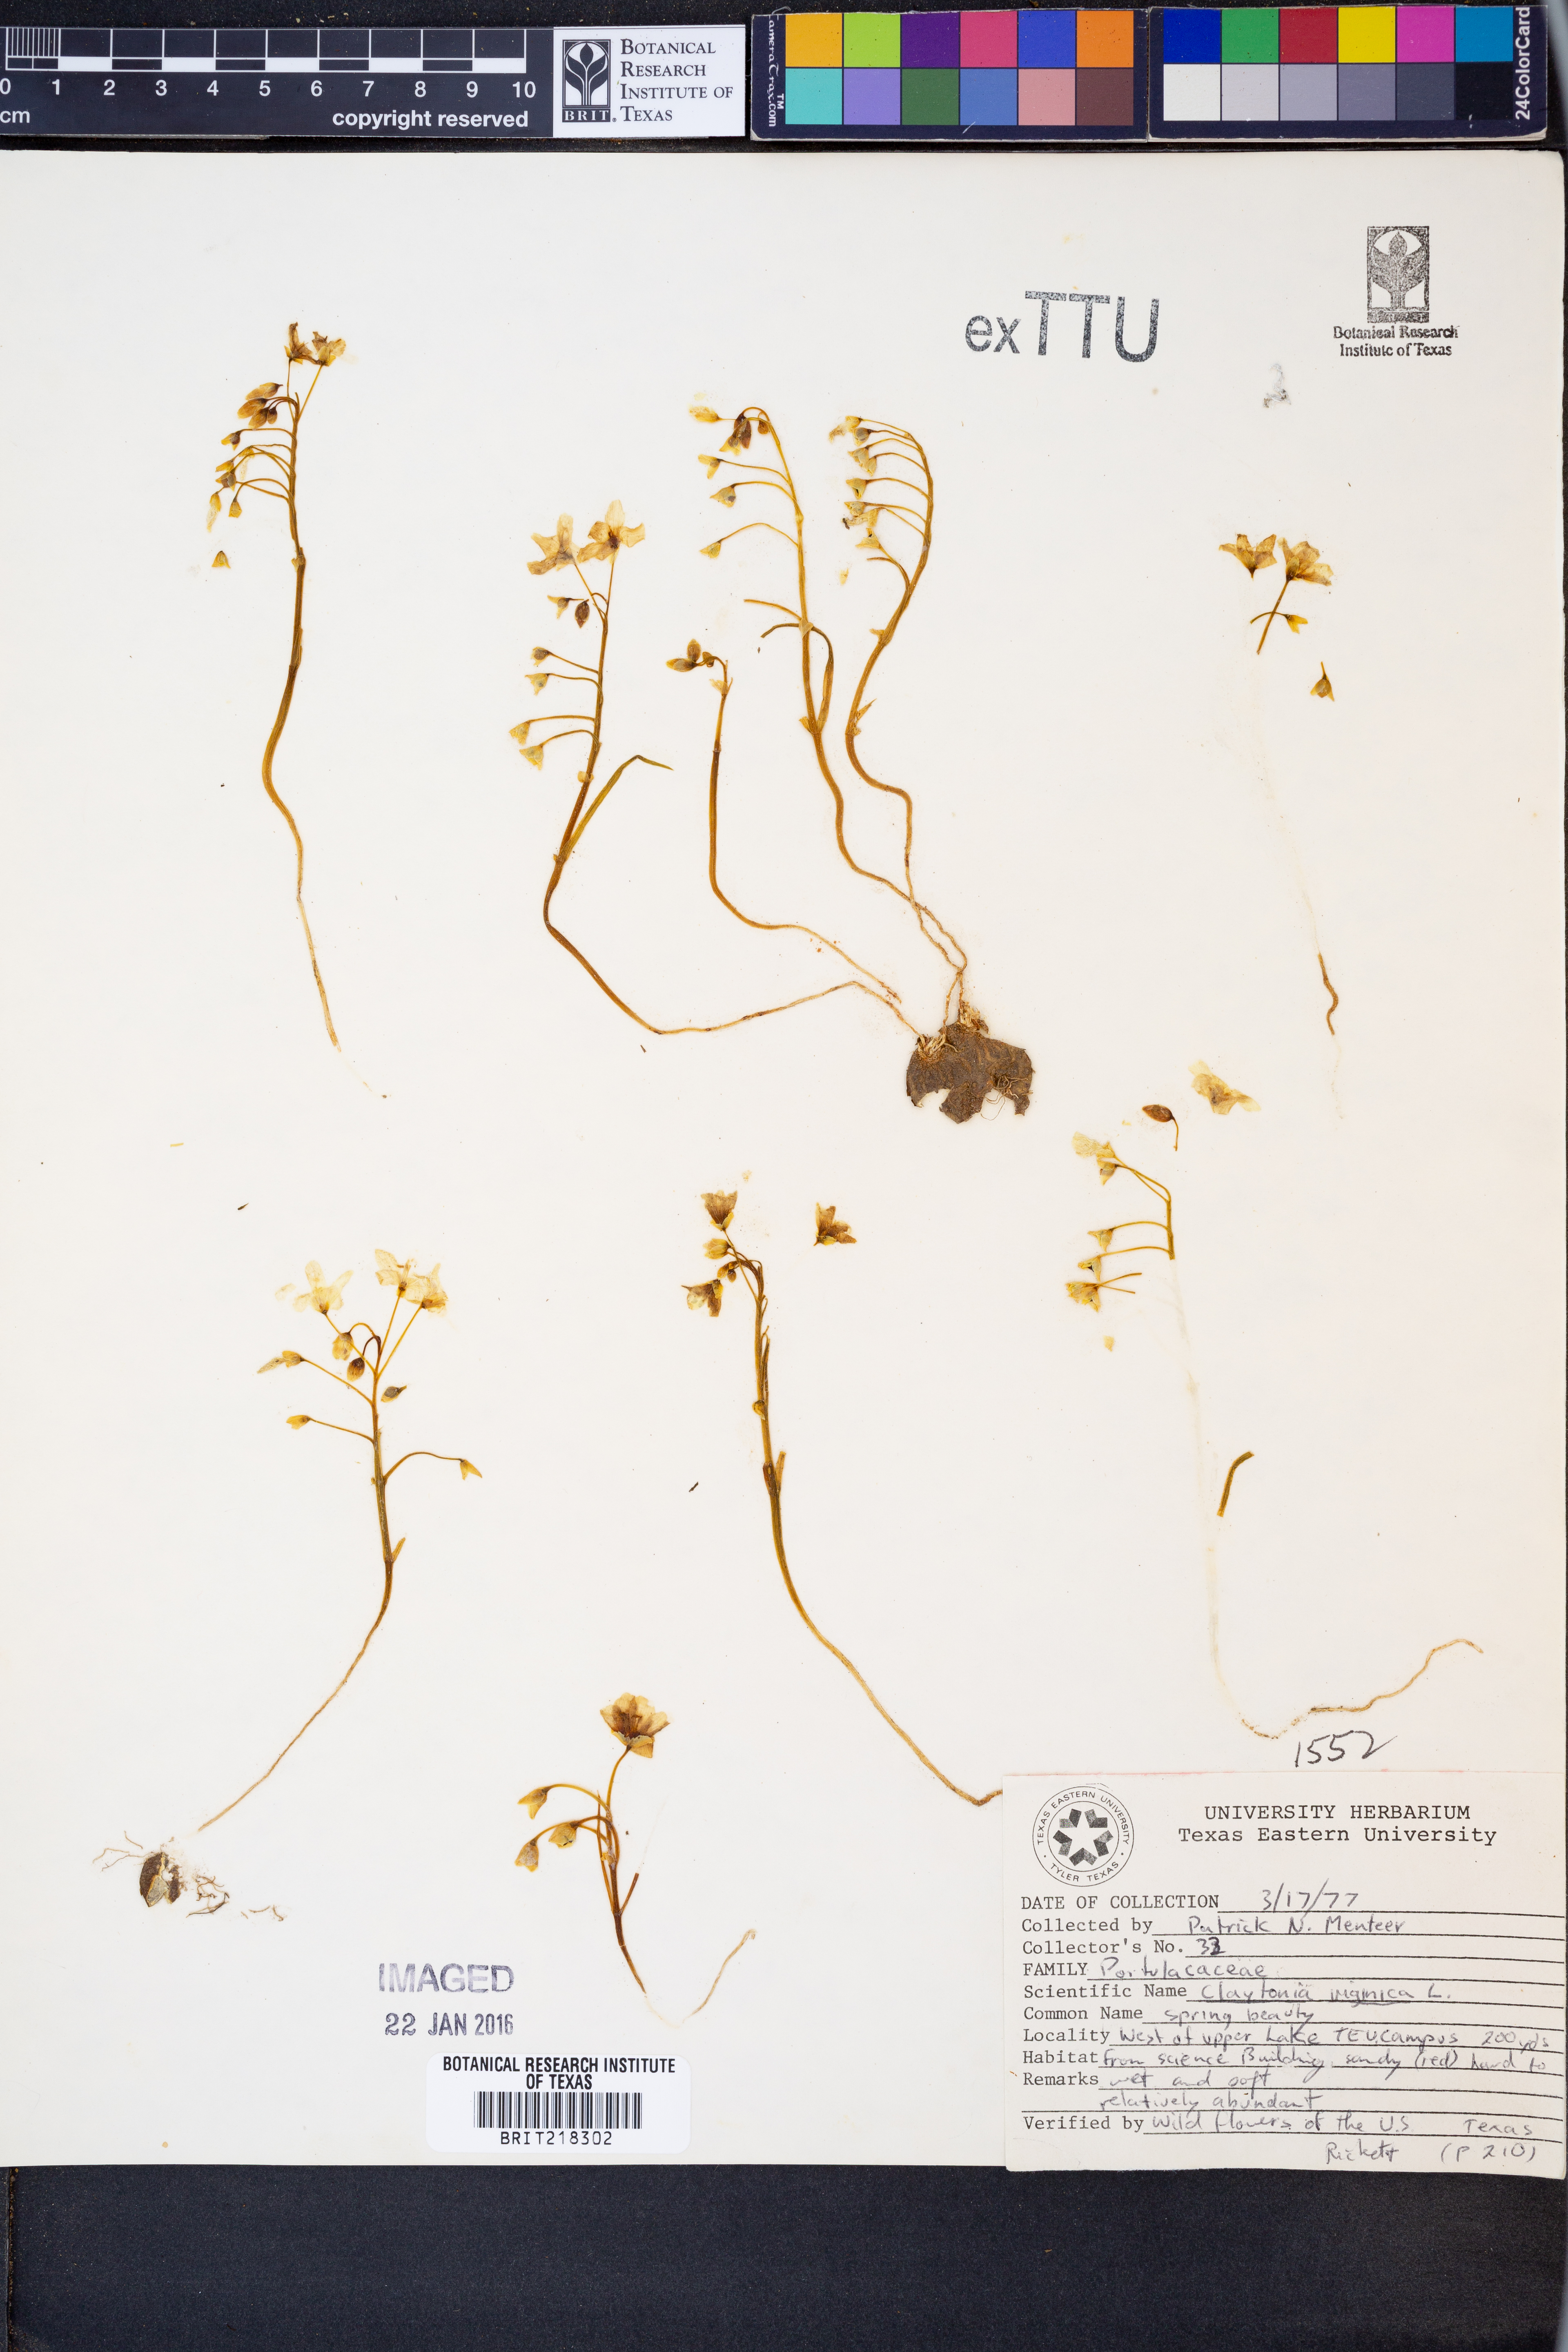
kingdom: Plantae
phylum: Tracheophyta
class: Magnoliopsida
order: Caryophyllales
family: Montiaceae
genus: Claytonia
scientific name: Claytonia virginica
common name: Virginia springbeauty
